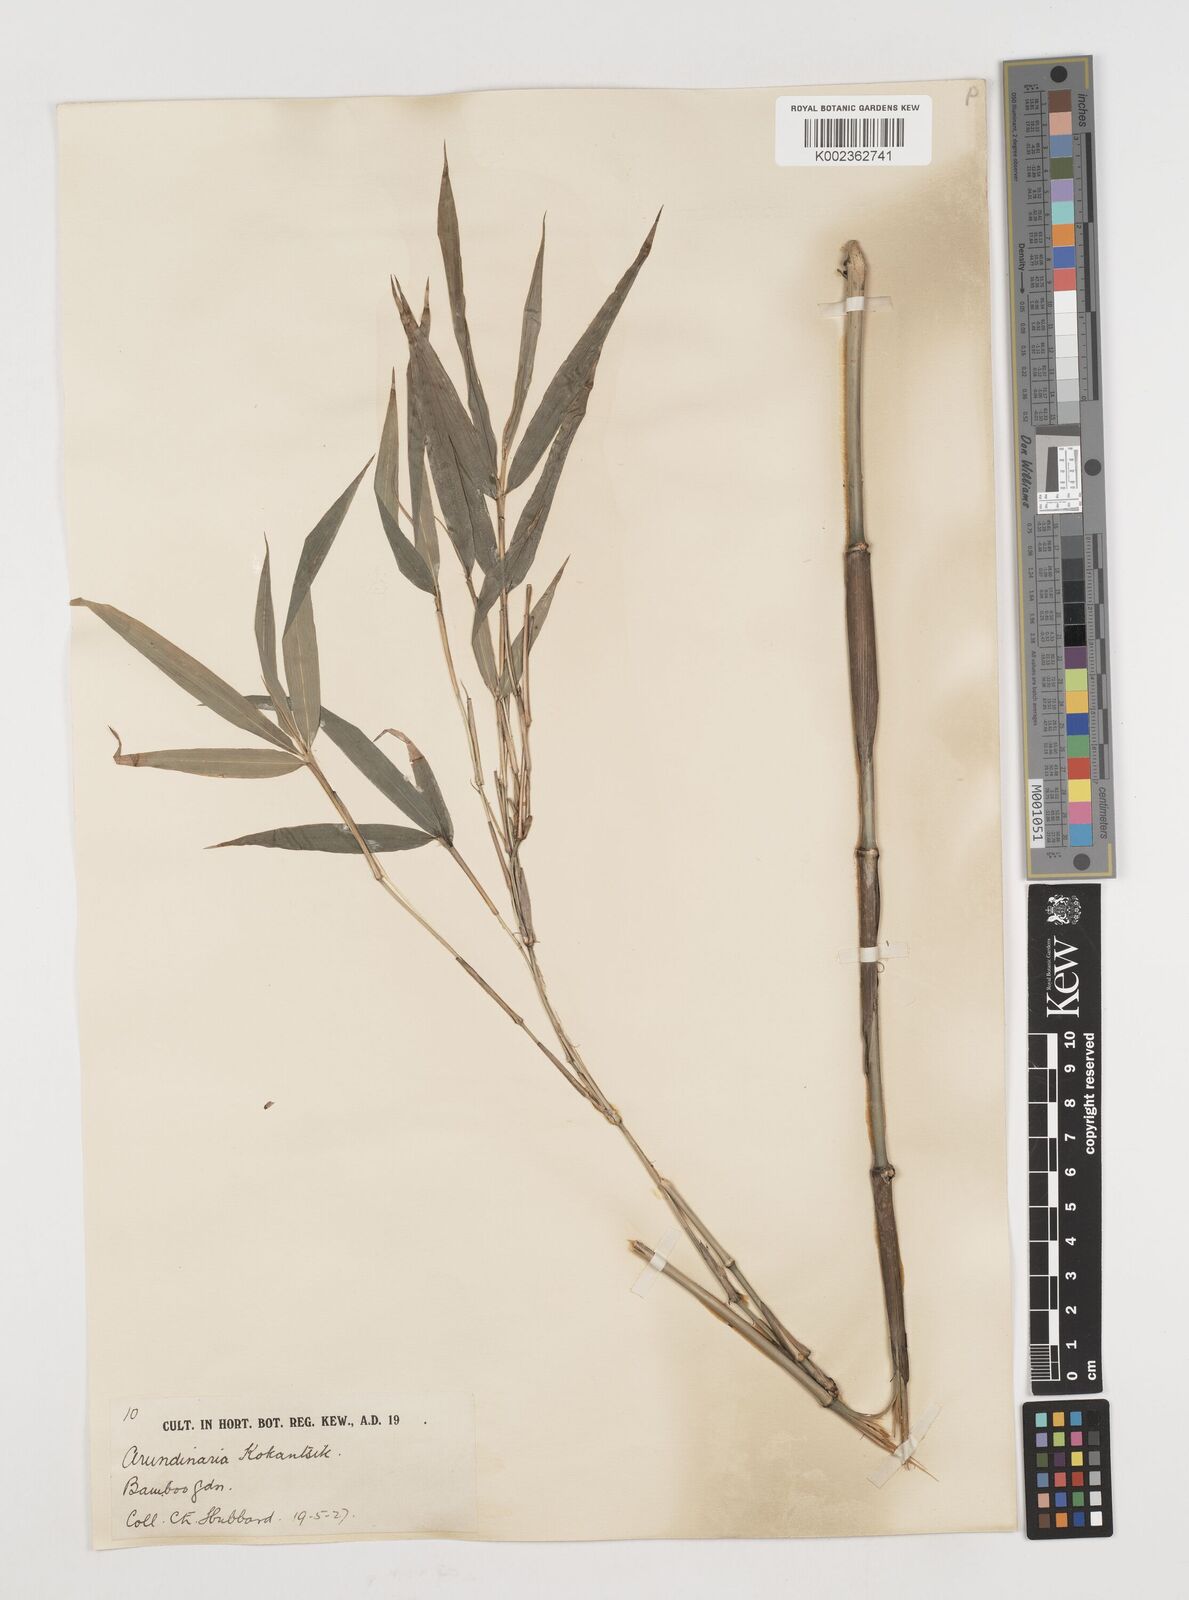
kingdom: Plantae
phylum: Tracheophyta
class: Liliopsida
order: Poales
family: Poaceae
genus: Chimonobambusa
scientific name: Chimonobambusa marmorea
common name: Marbled bamboo
